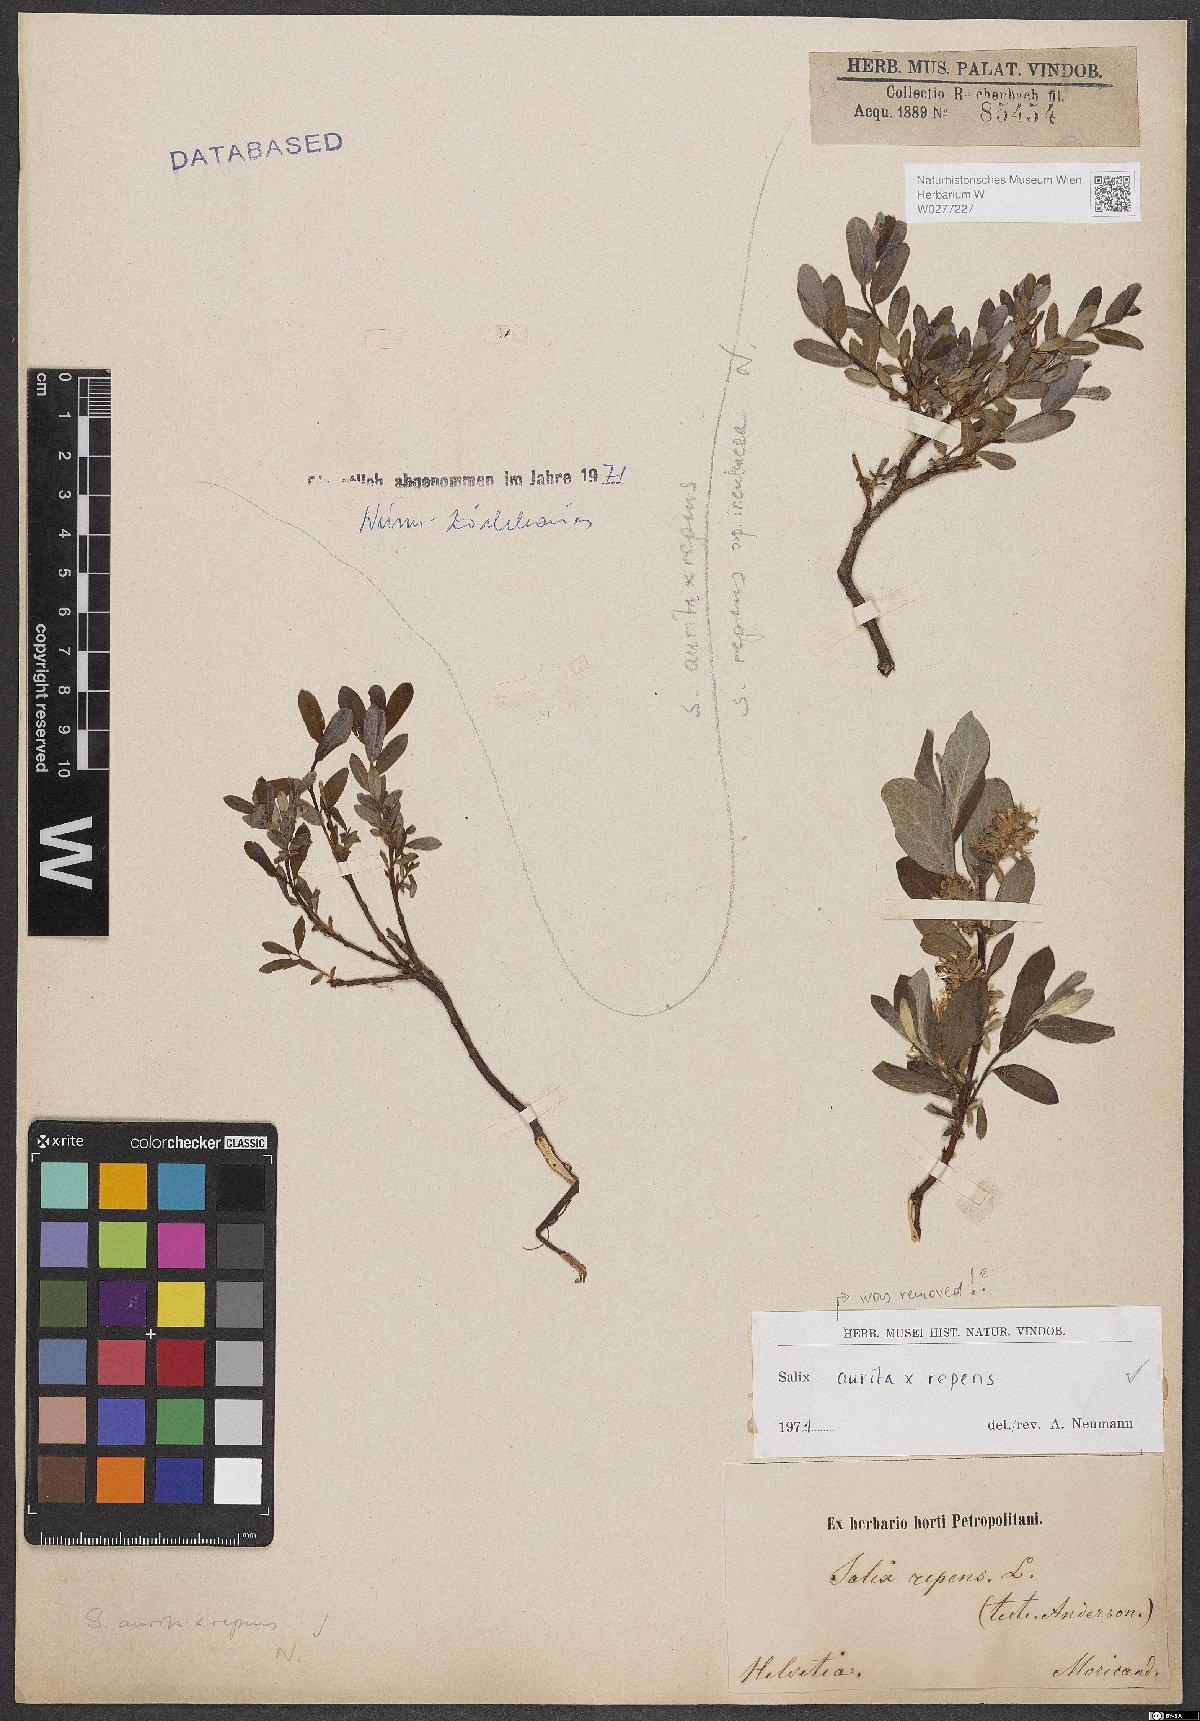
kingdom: Plantae
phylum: Tracheophyta
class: Magnoliopsida
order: Malpighiales
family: Salicaceae
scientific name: Salicaceae
